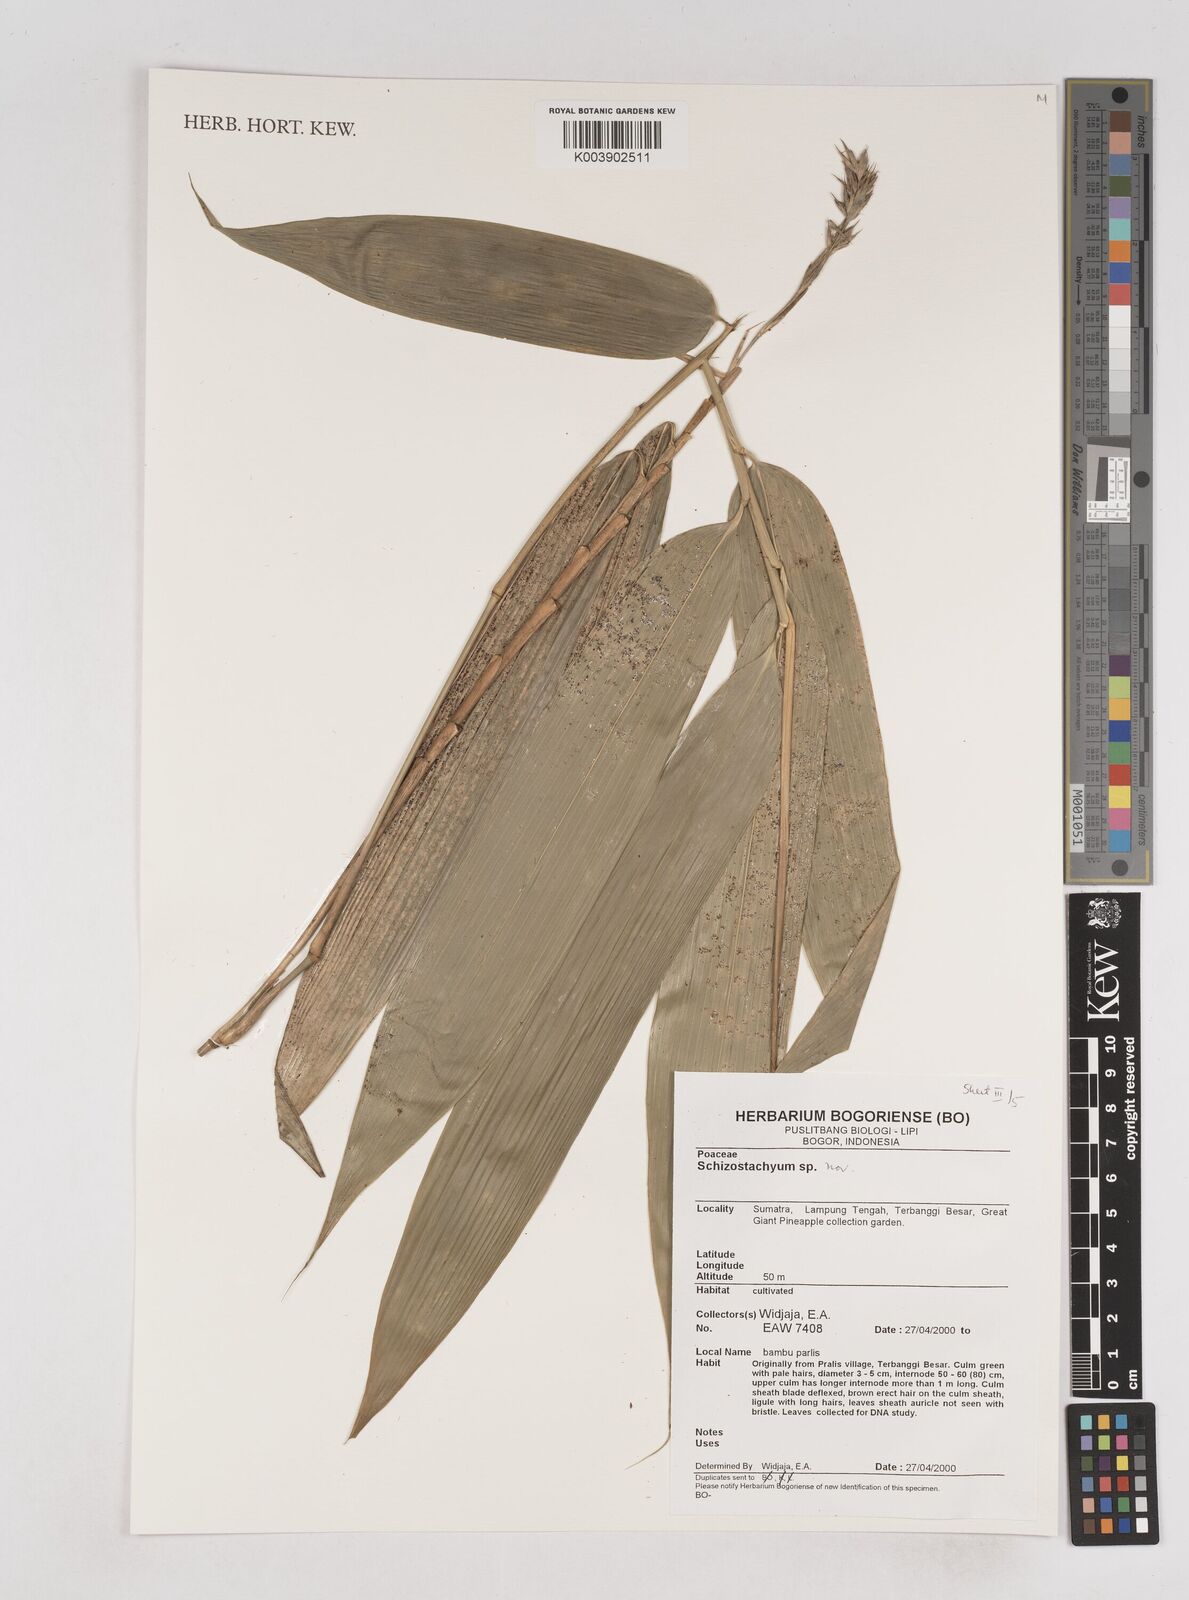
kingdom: Plantae
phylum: Tracheophyta
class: Liliopsida
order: Poales
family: Poaceae
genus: Schizostachyum
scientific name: Schizostachyum
